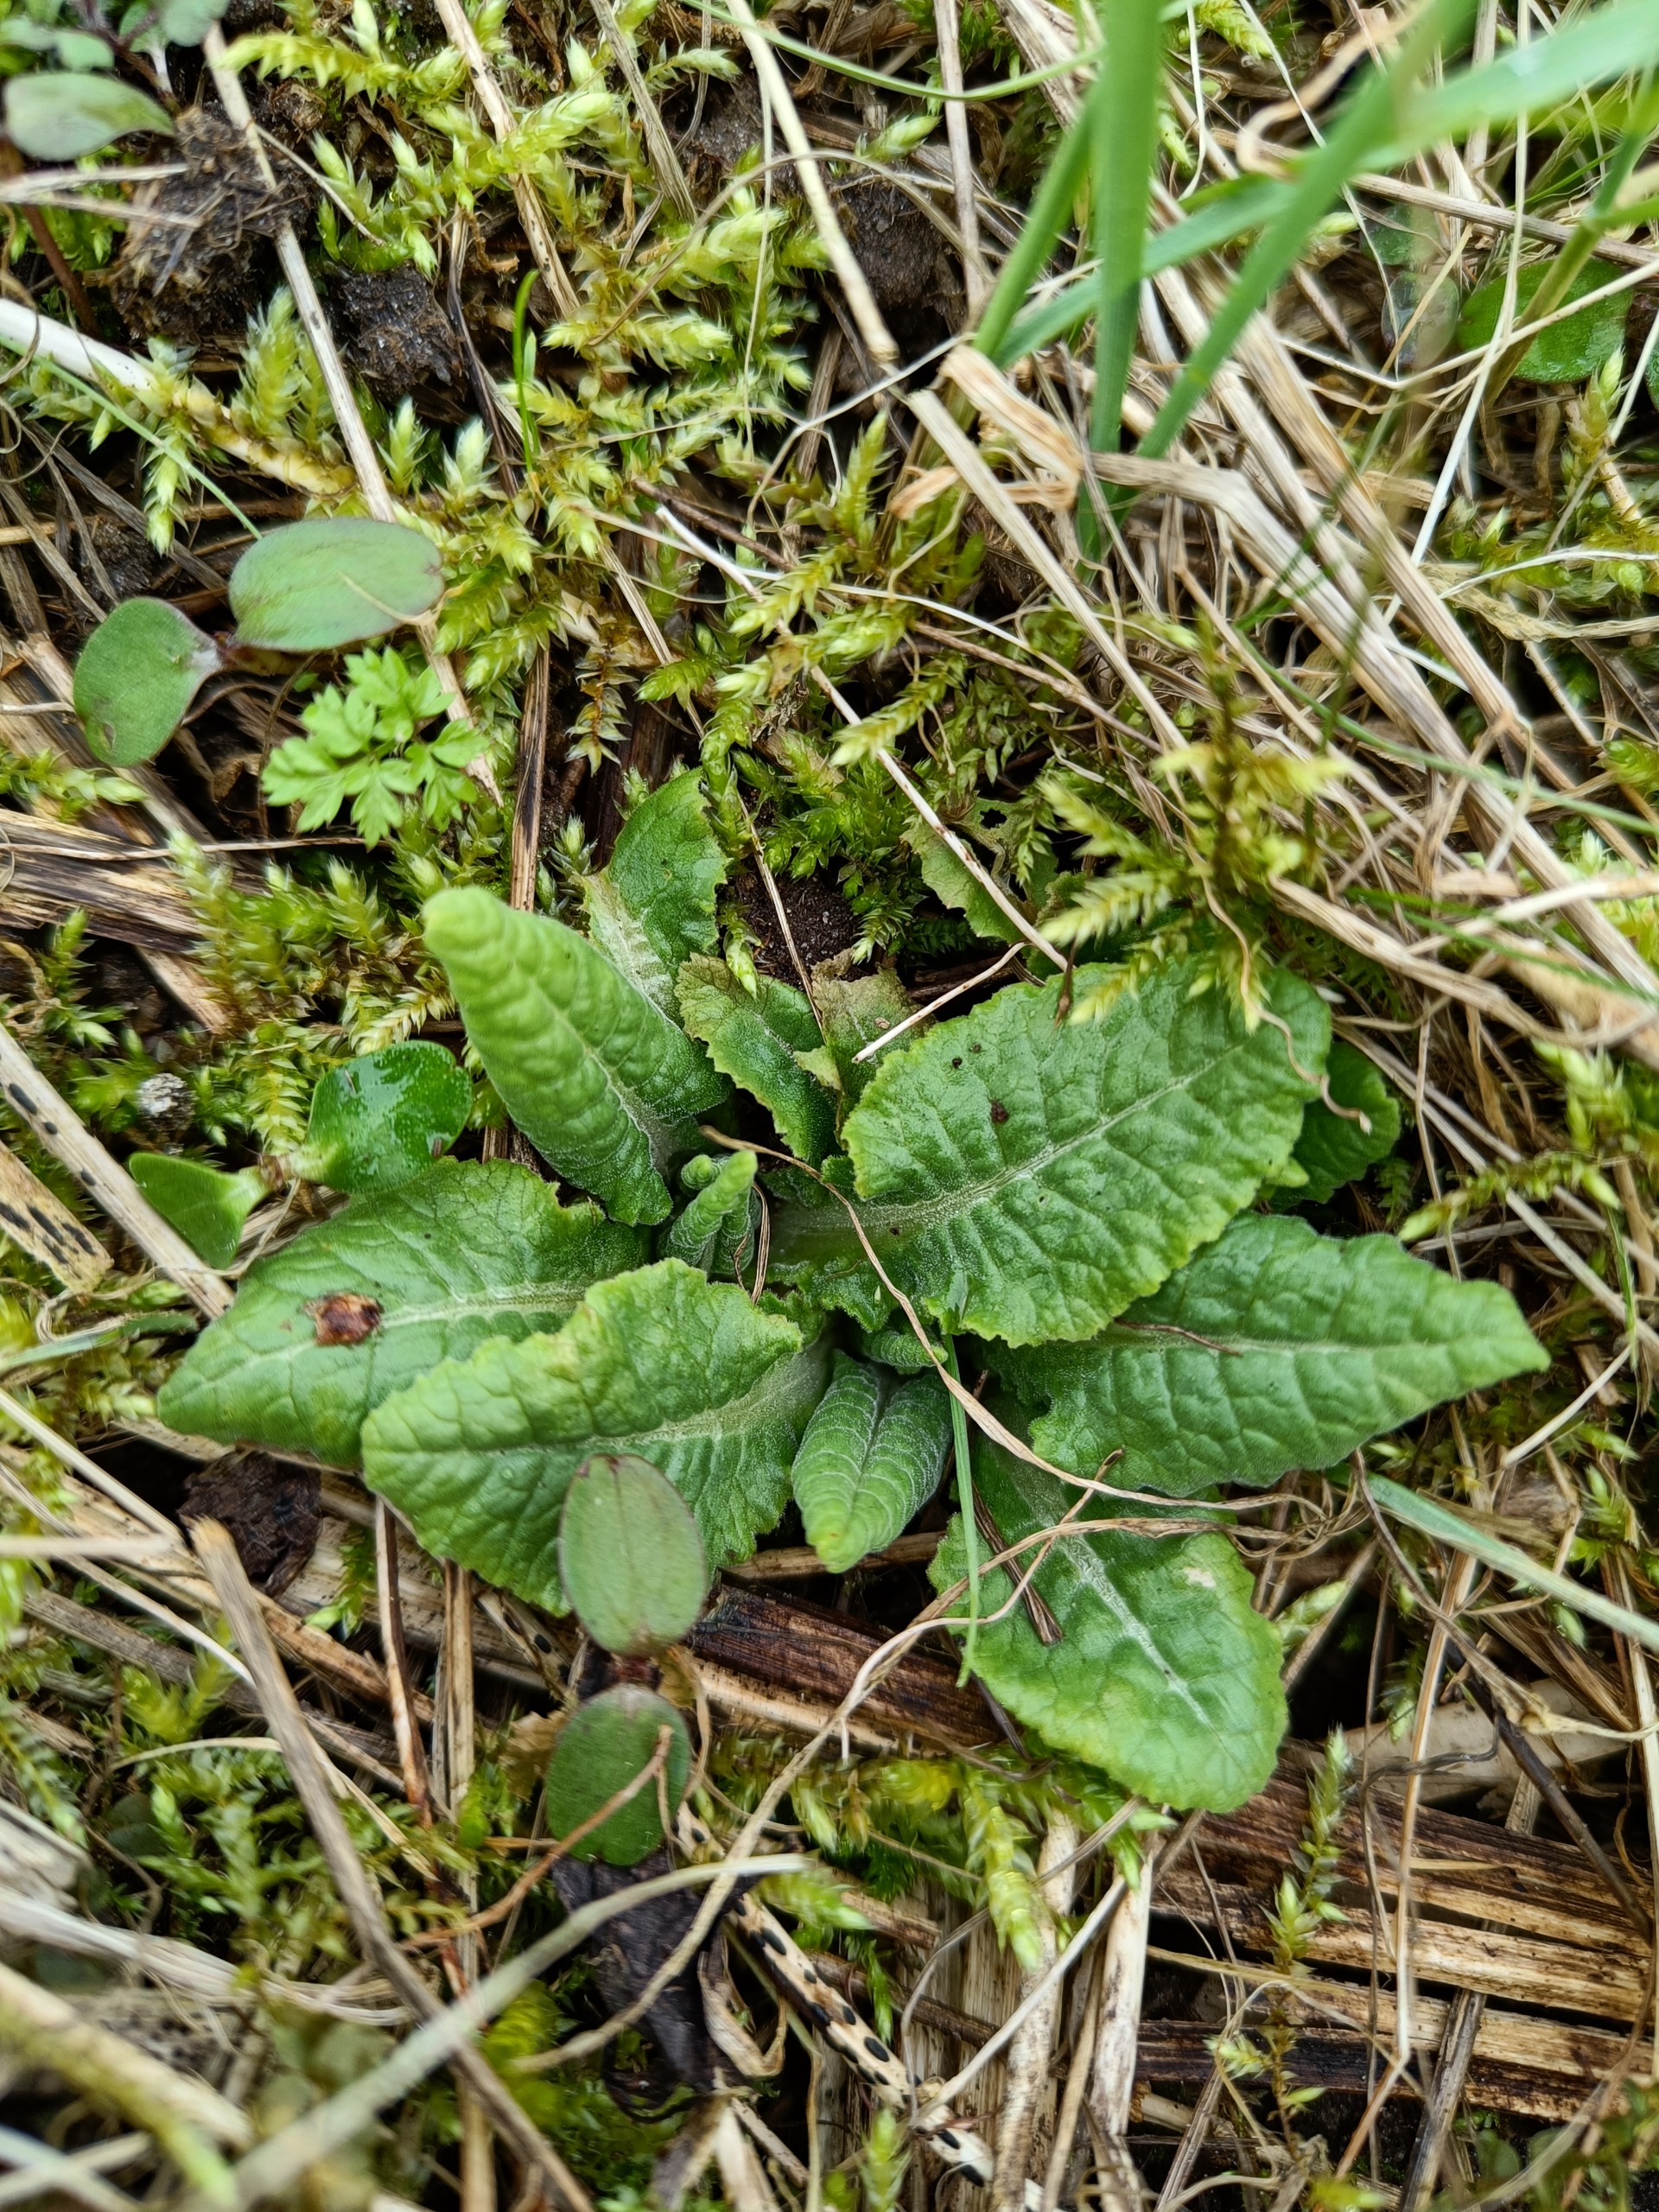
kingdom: Plantae
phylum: Tracheophyta
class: Magnoliopsida
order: Ericales
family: Primulaceae
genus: Primula
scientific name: Primula veris
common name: Hulkravet kodriver
